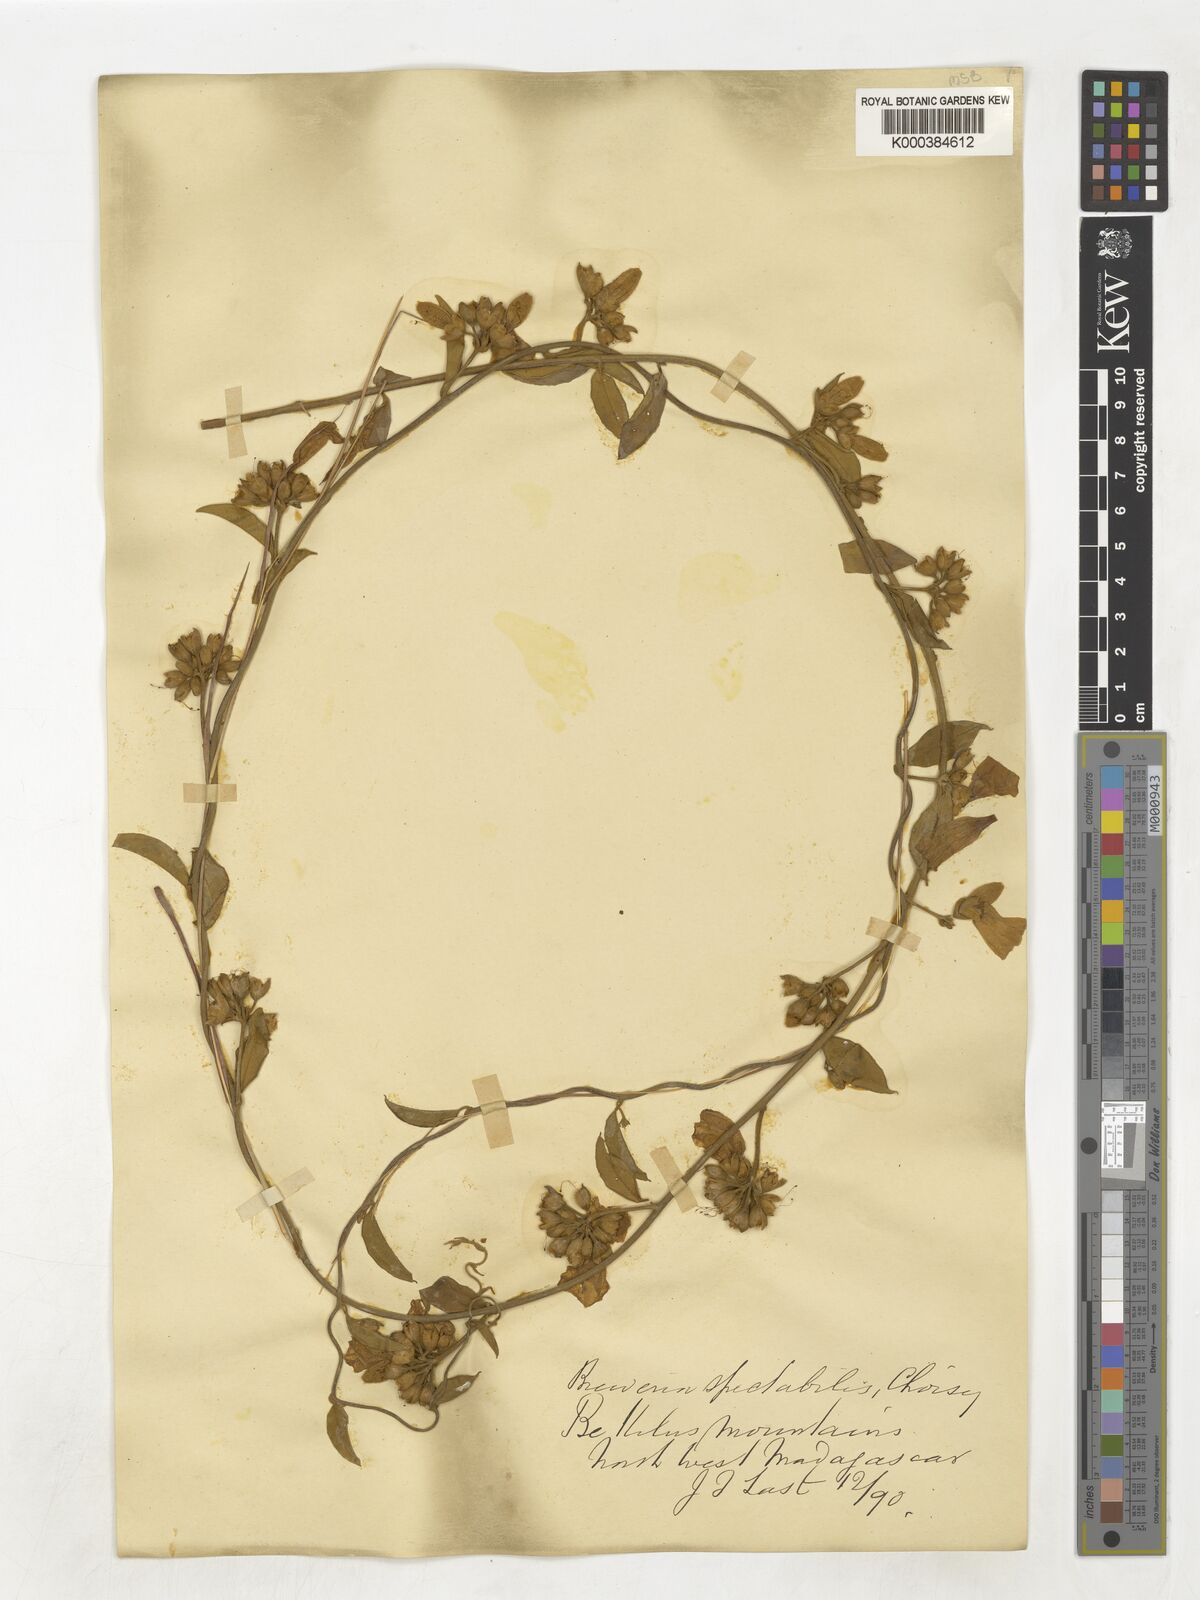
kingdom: Plantae
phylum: Tracheophyta
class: Magnoliopsida
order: Solanales
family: Convolvulaceae
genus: Bonamia
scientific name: Bonamia spectabilis
